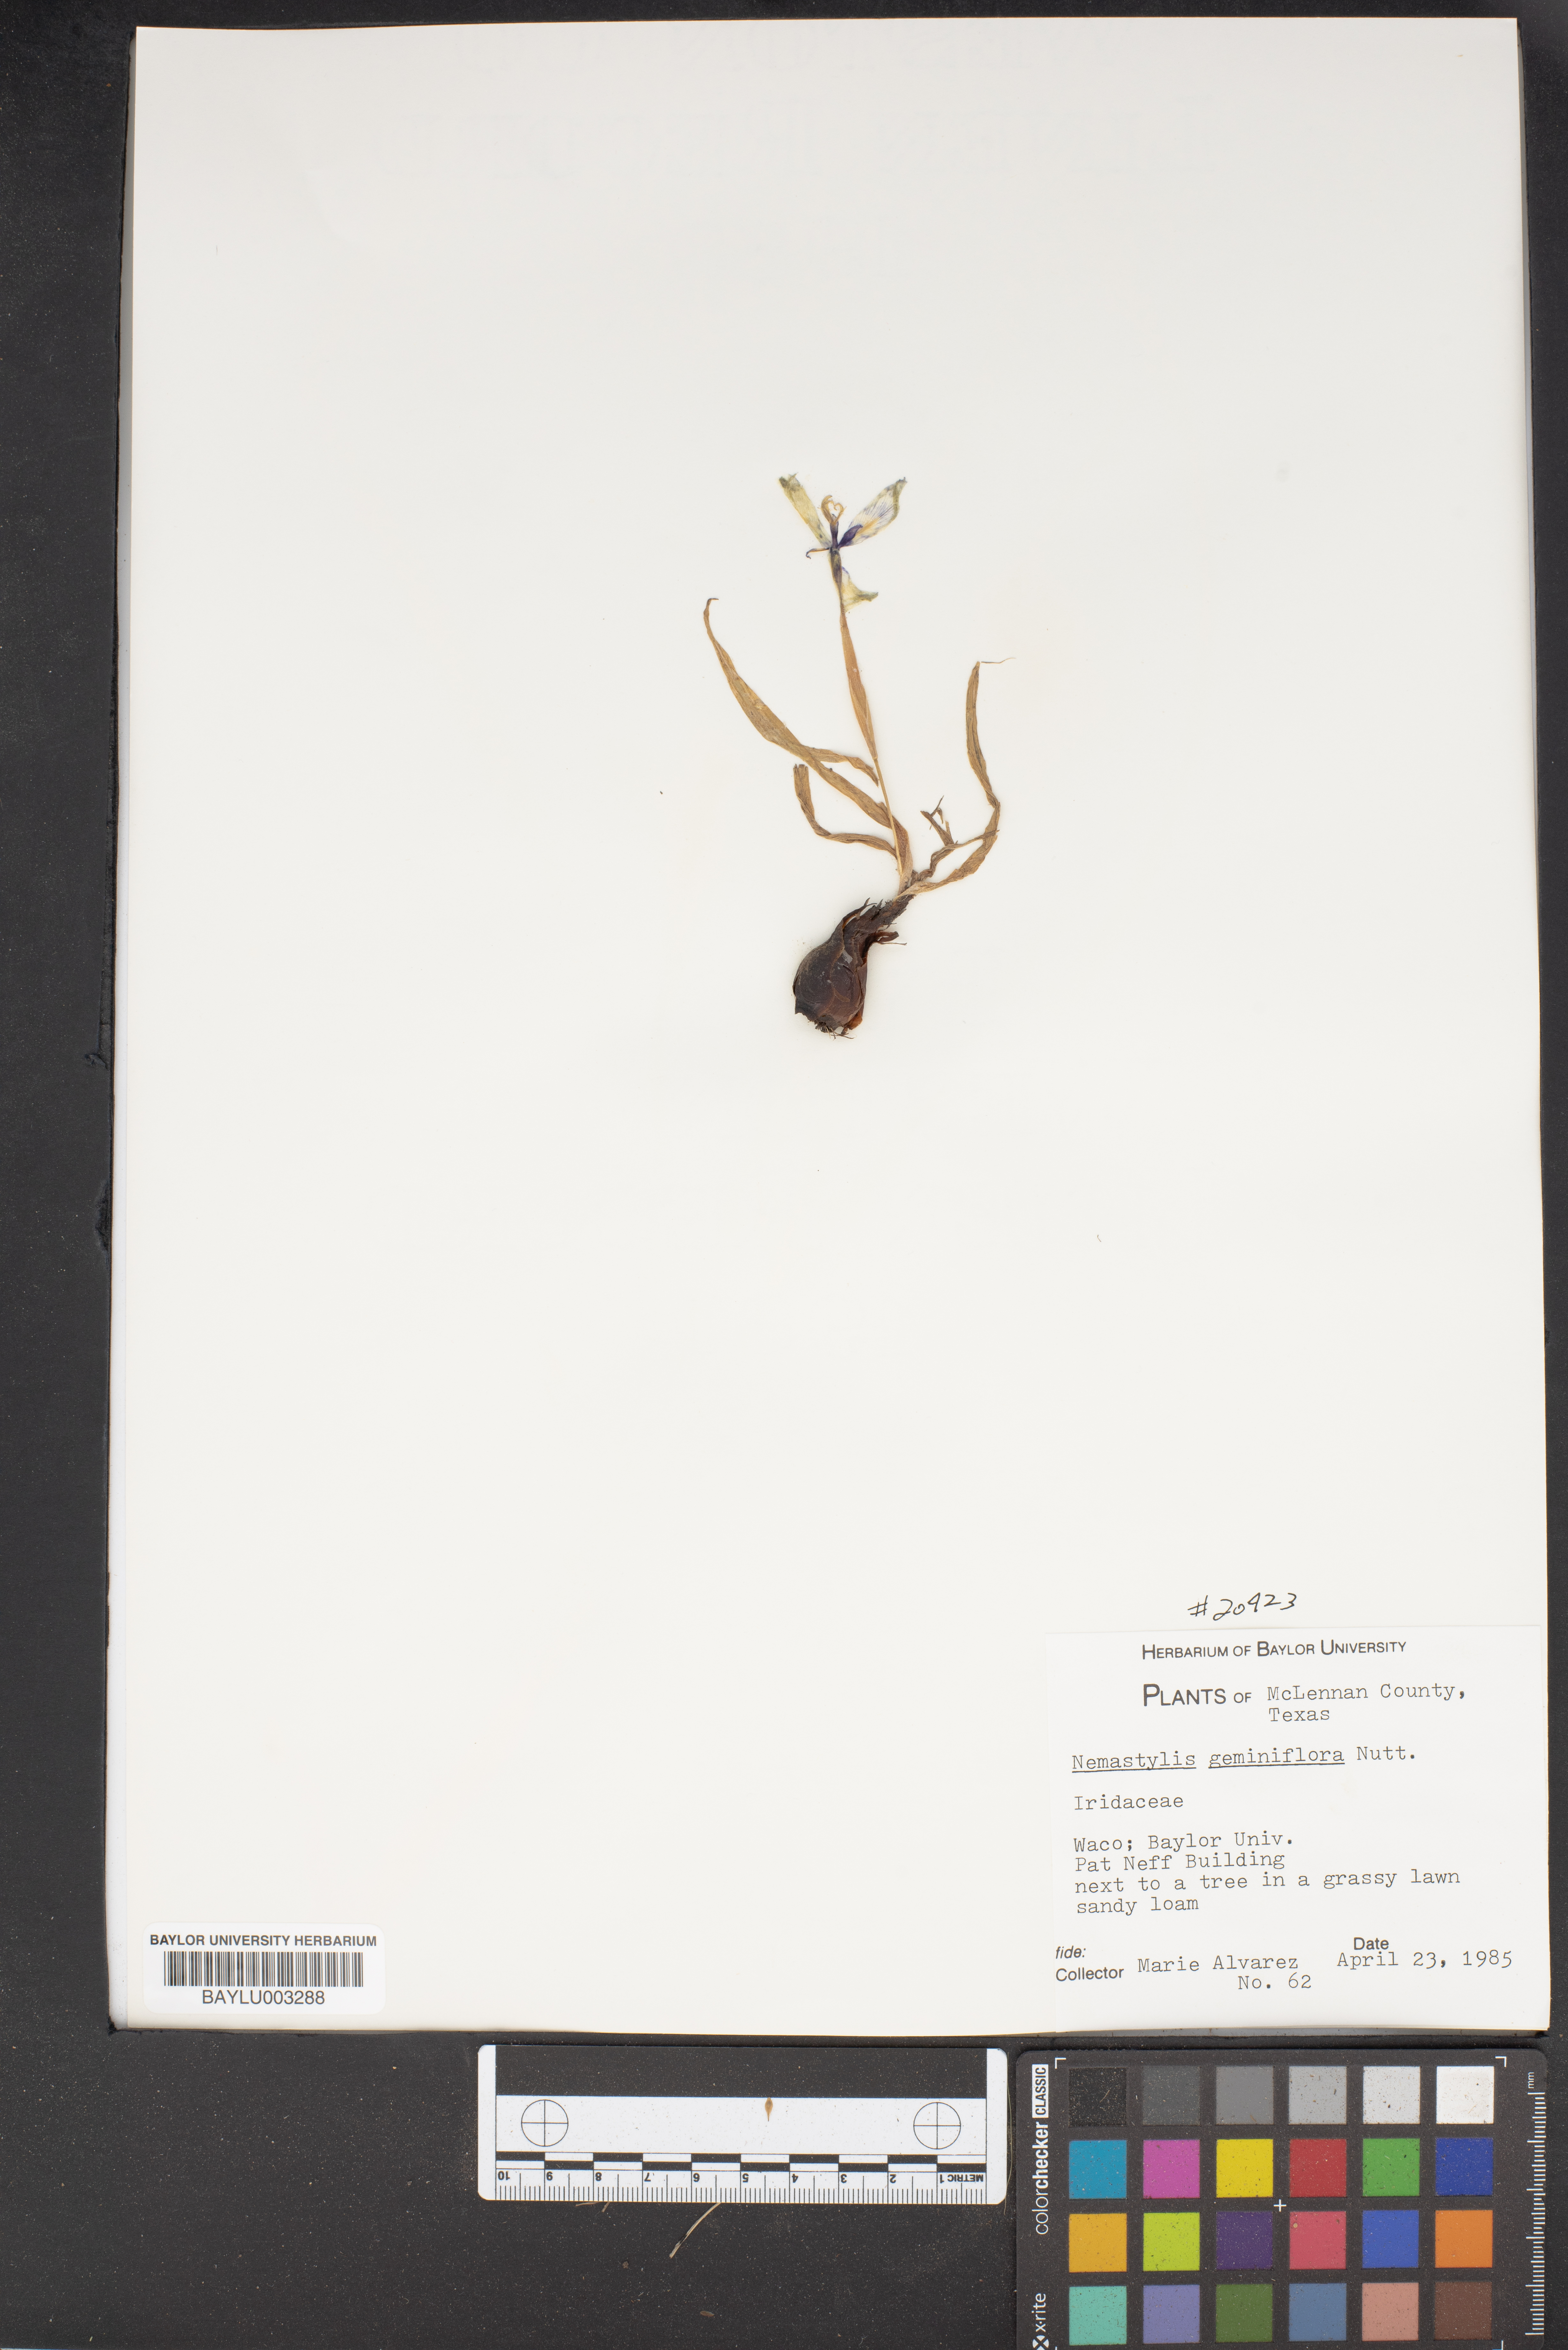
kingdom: Plantae
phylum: Tracheophyta
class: Liliopsida
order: Asparagales
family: Iridaceae
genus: Nemastylis
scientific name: Nemastylis geminiflora
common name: Prairie celestial
